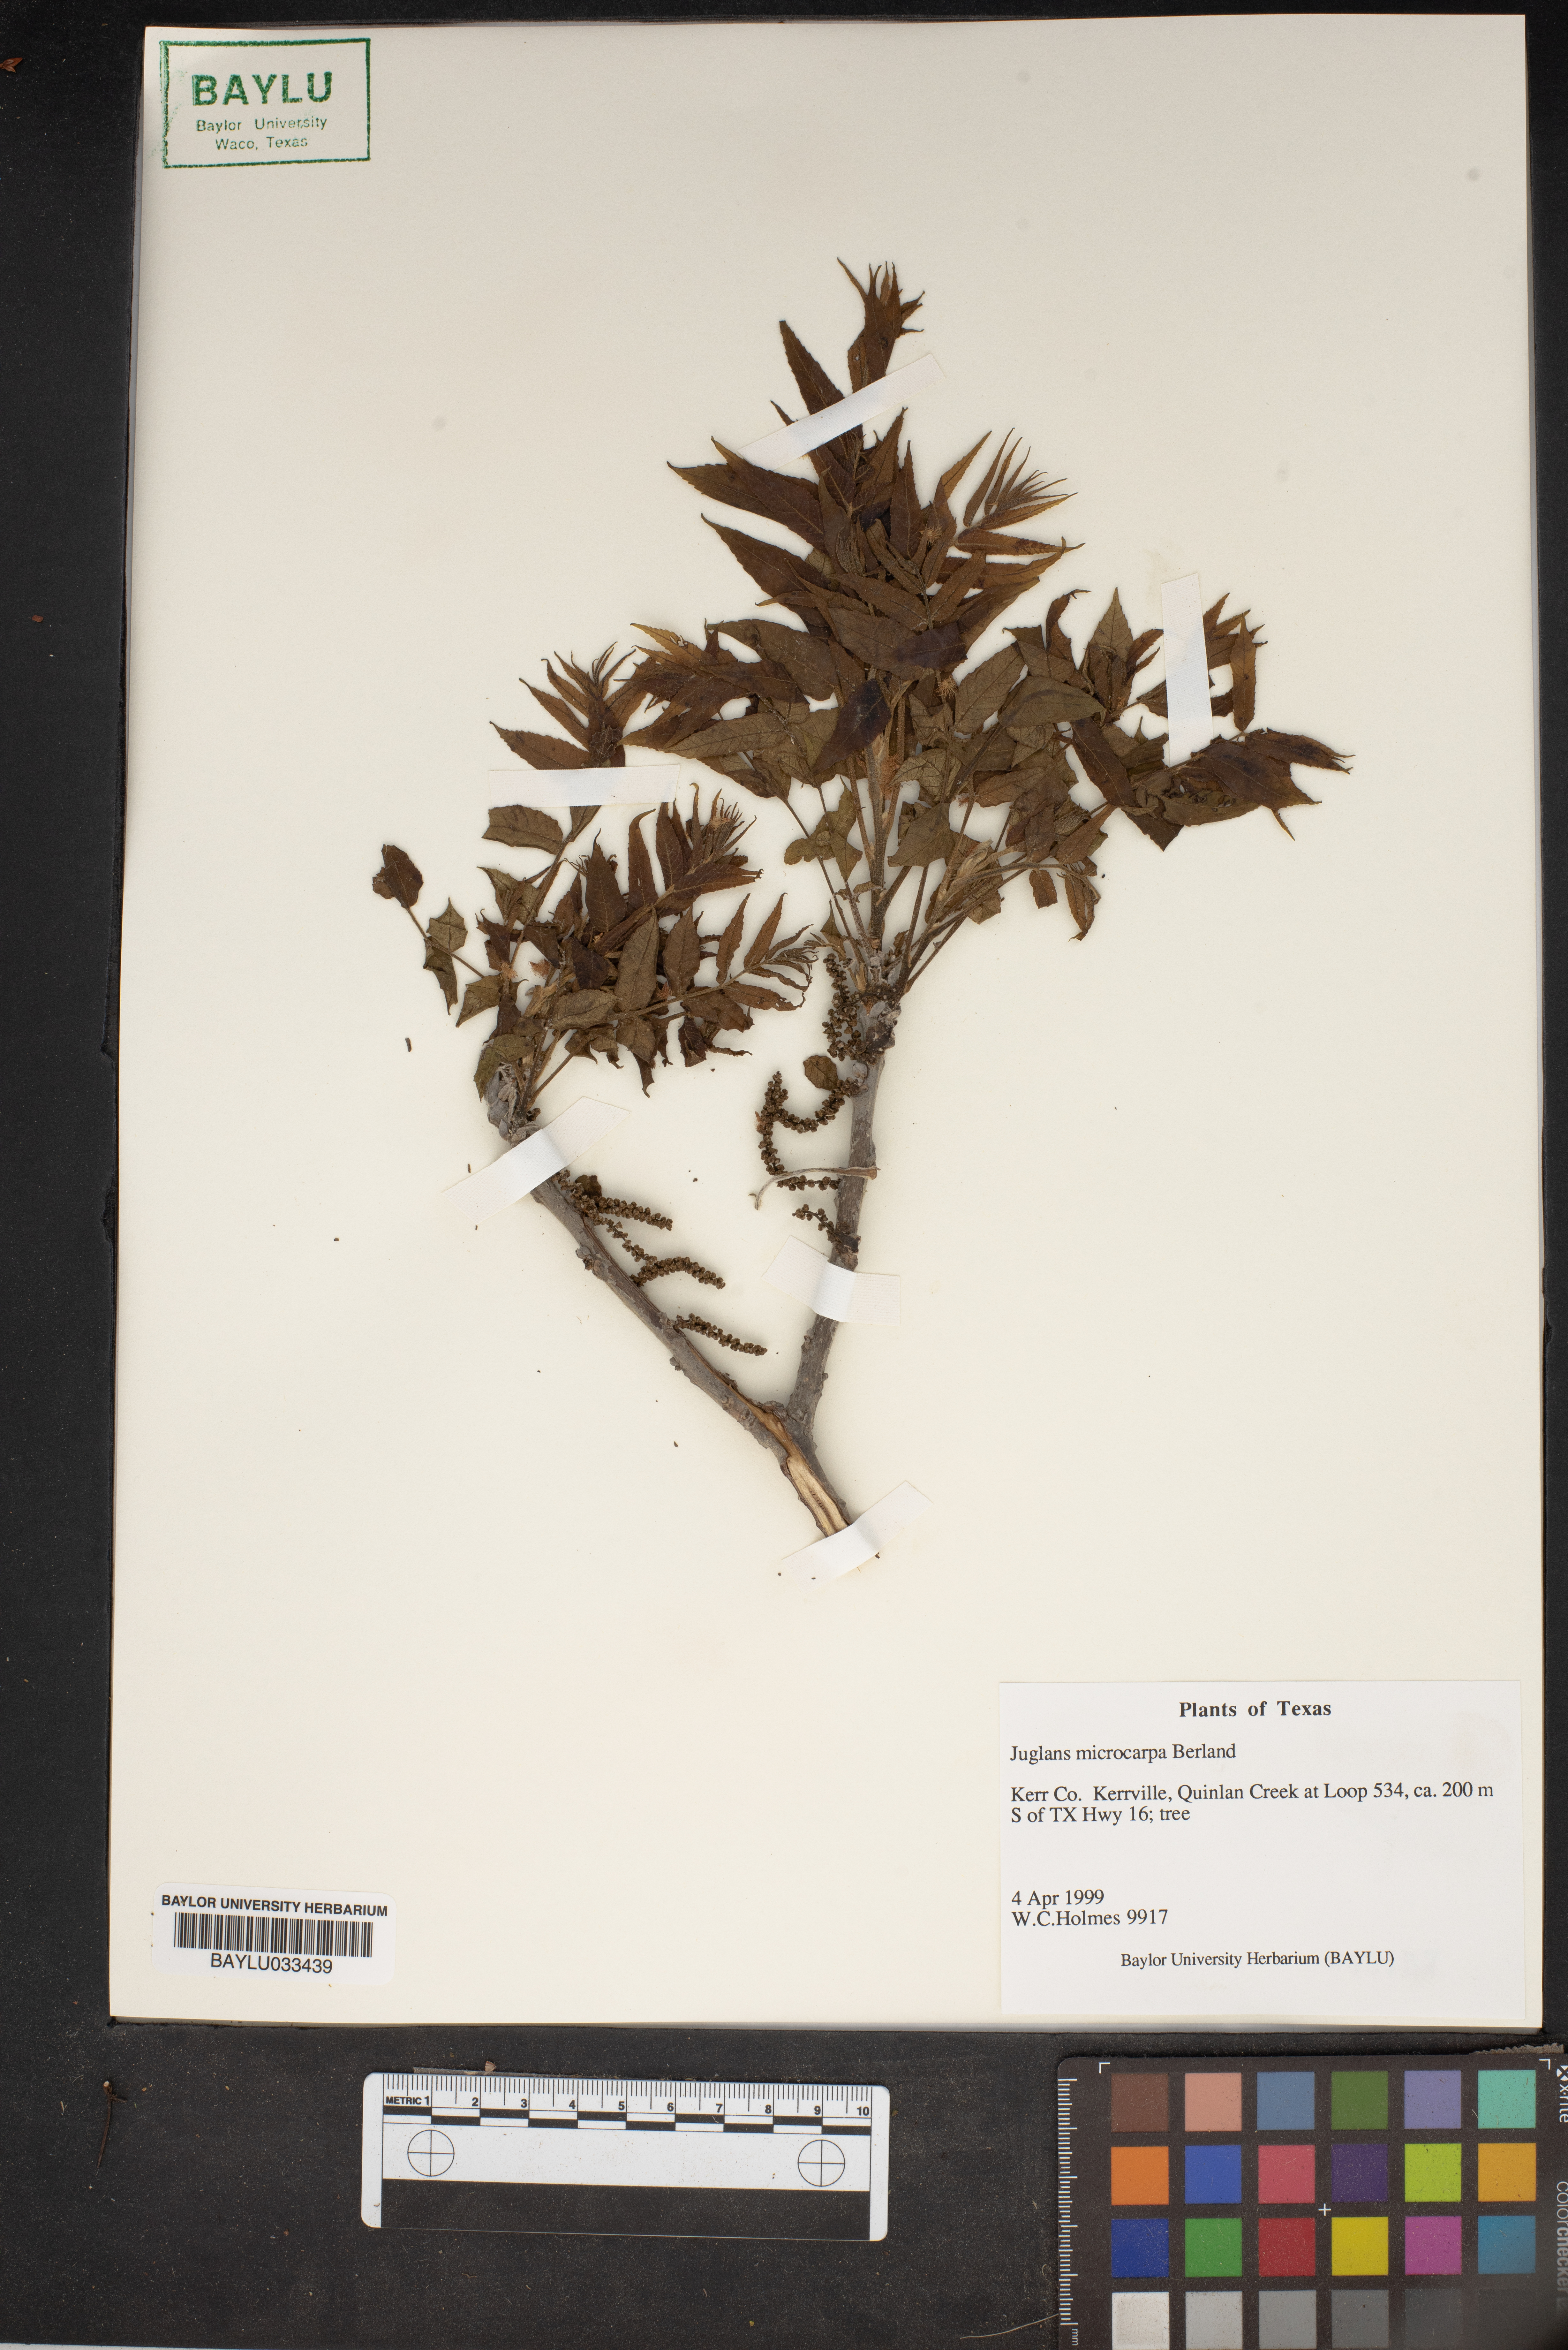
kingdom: Plantae
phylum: Tracheophyta
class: Magnoliopsida
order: Fagales
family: Juglandaceae
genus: Juglans
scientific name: Juglans microcarpa
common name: Texas walnut
